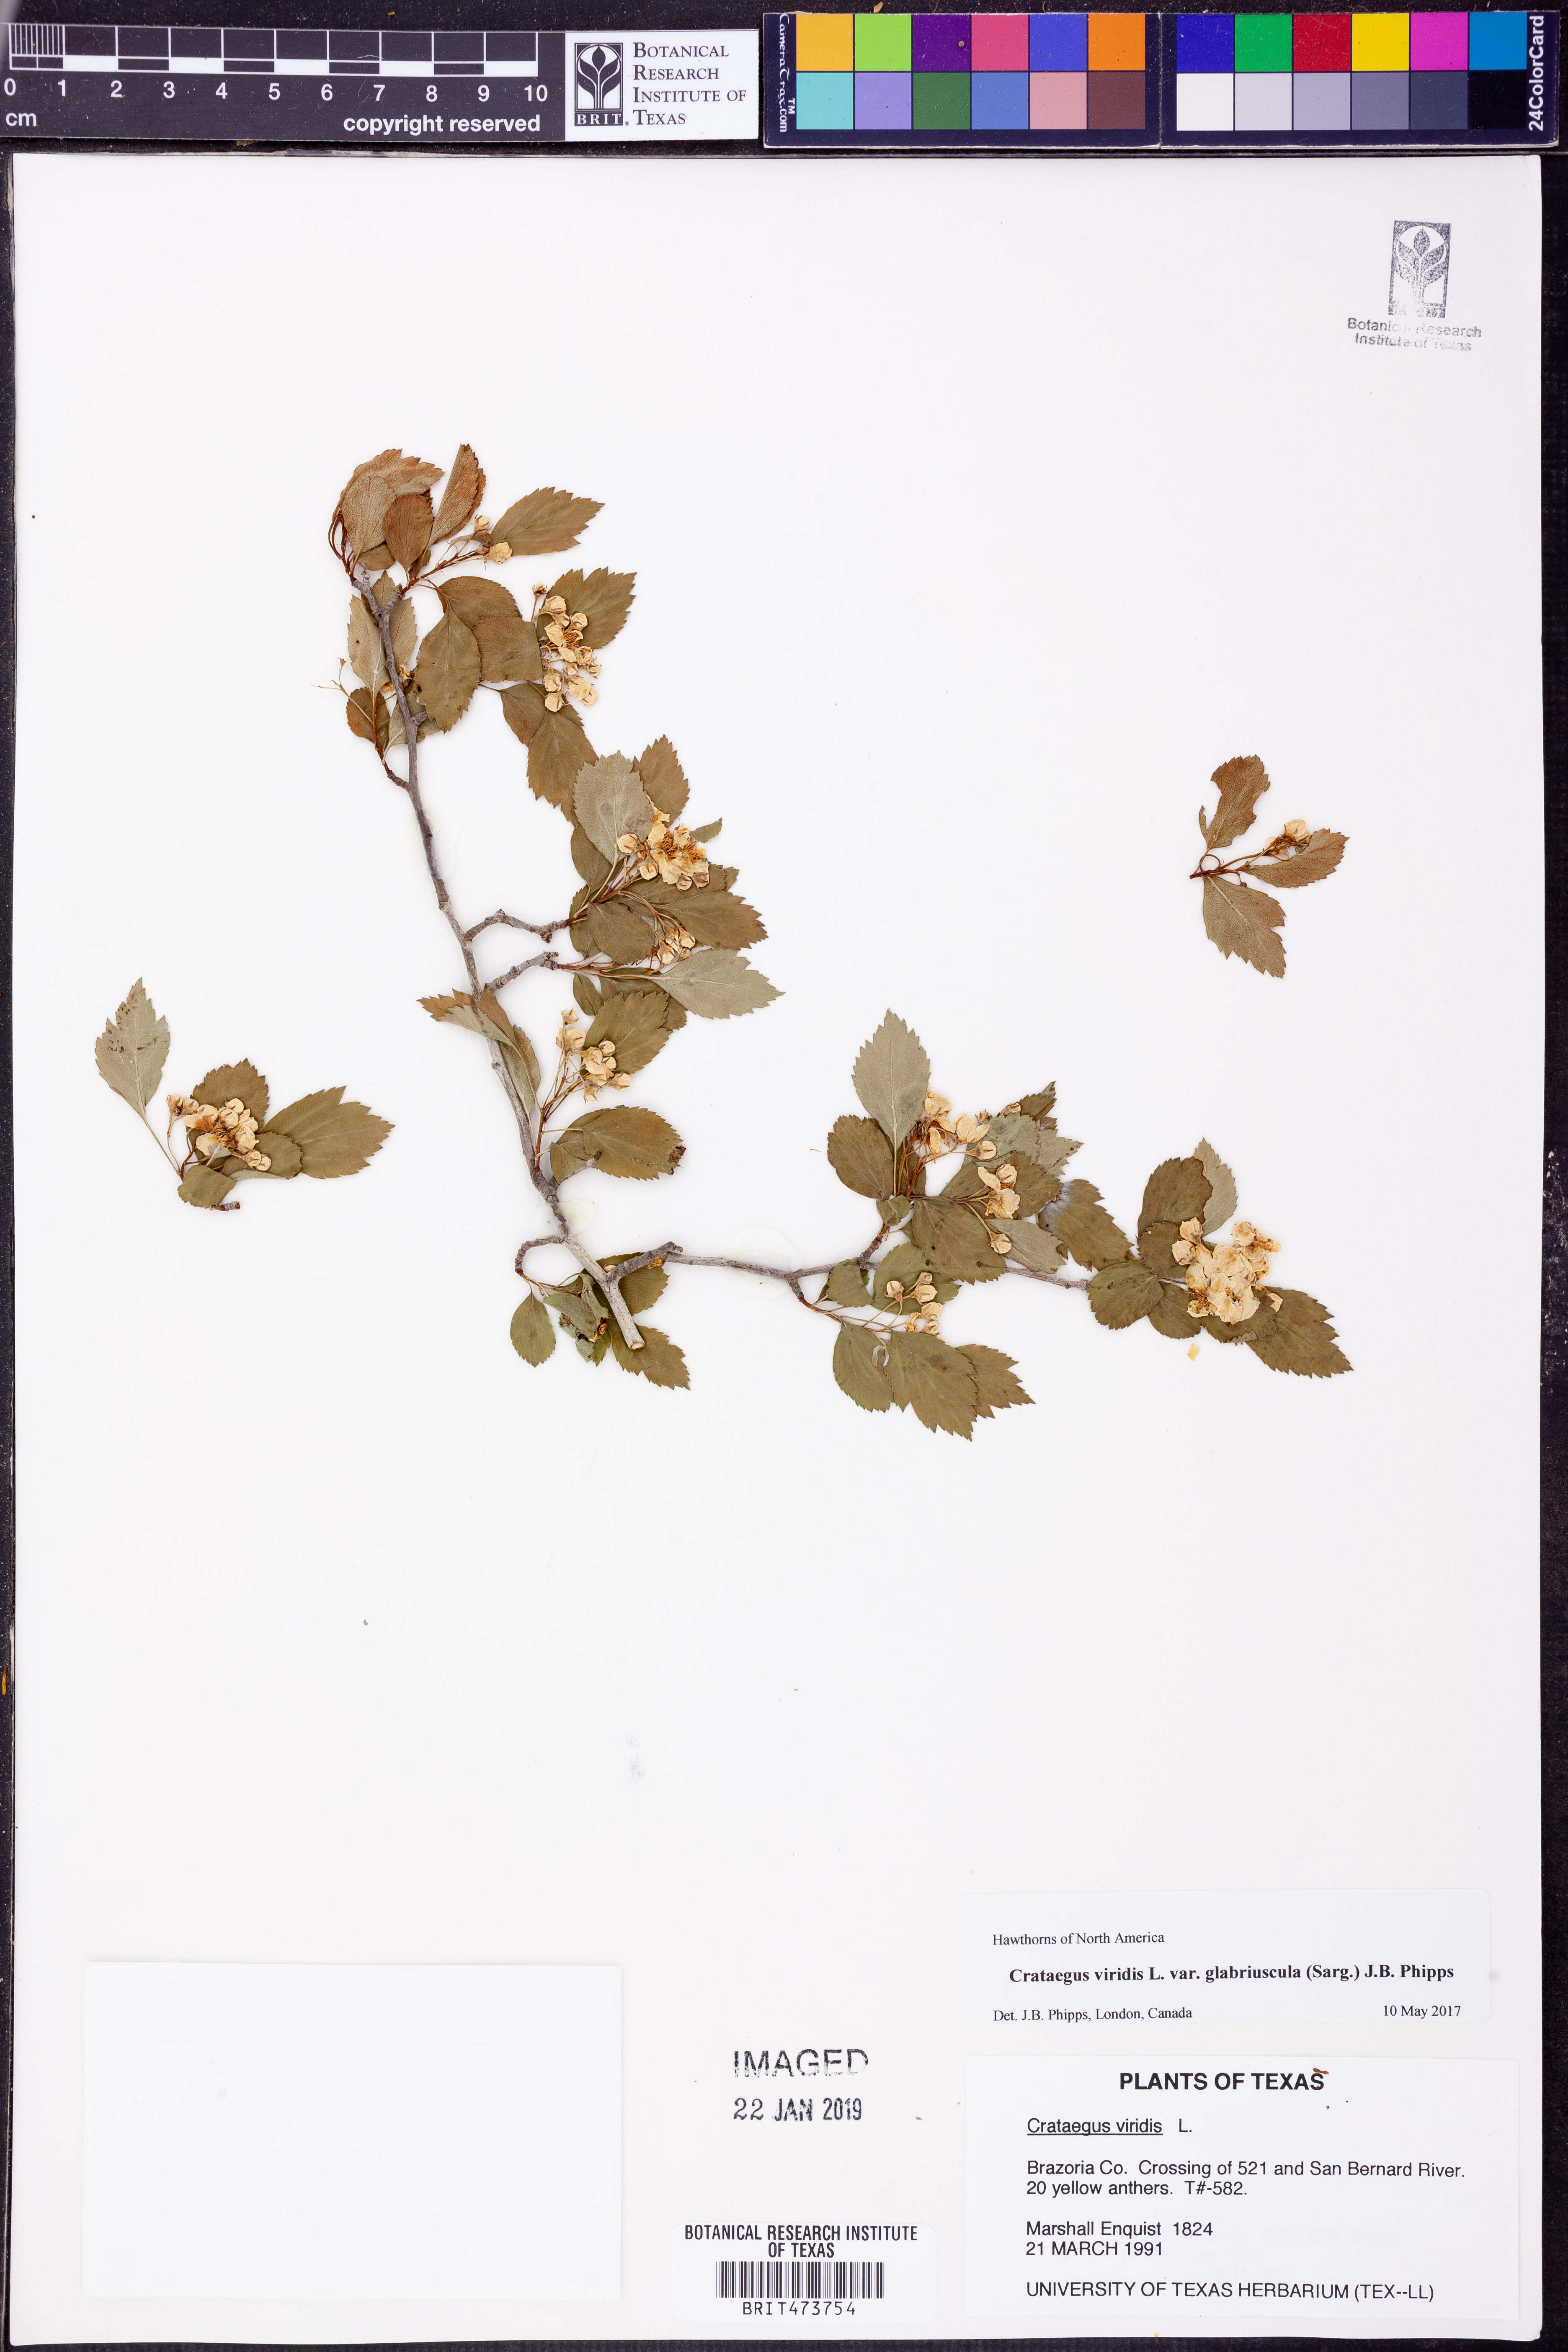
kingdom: Plantae
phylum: Tracheophyta
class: Magnoliopsida
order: Rosales
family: Rosaceae
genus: Crataegus
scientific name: Crataegus viridis
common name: Southernthorn
